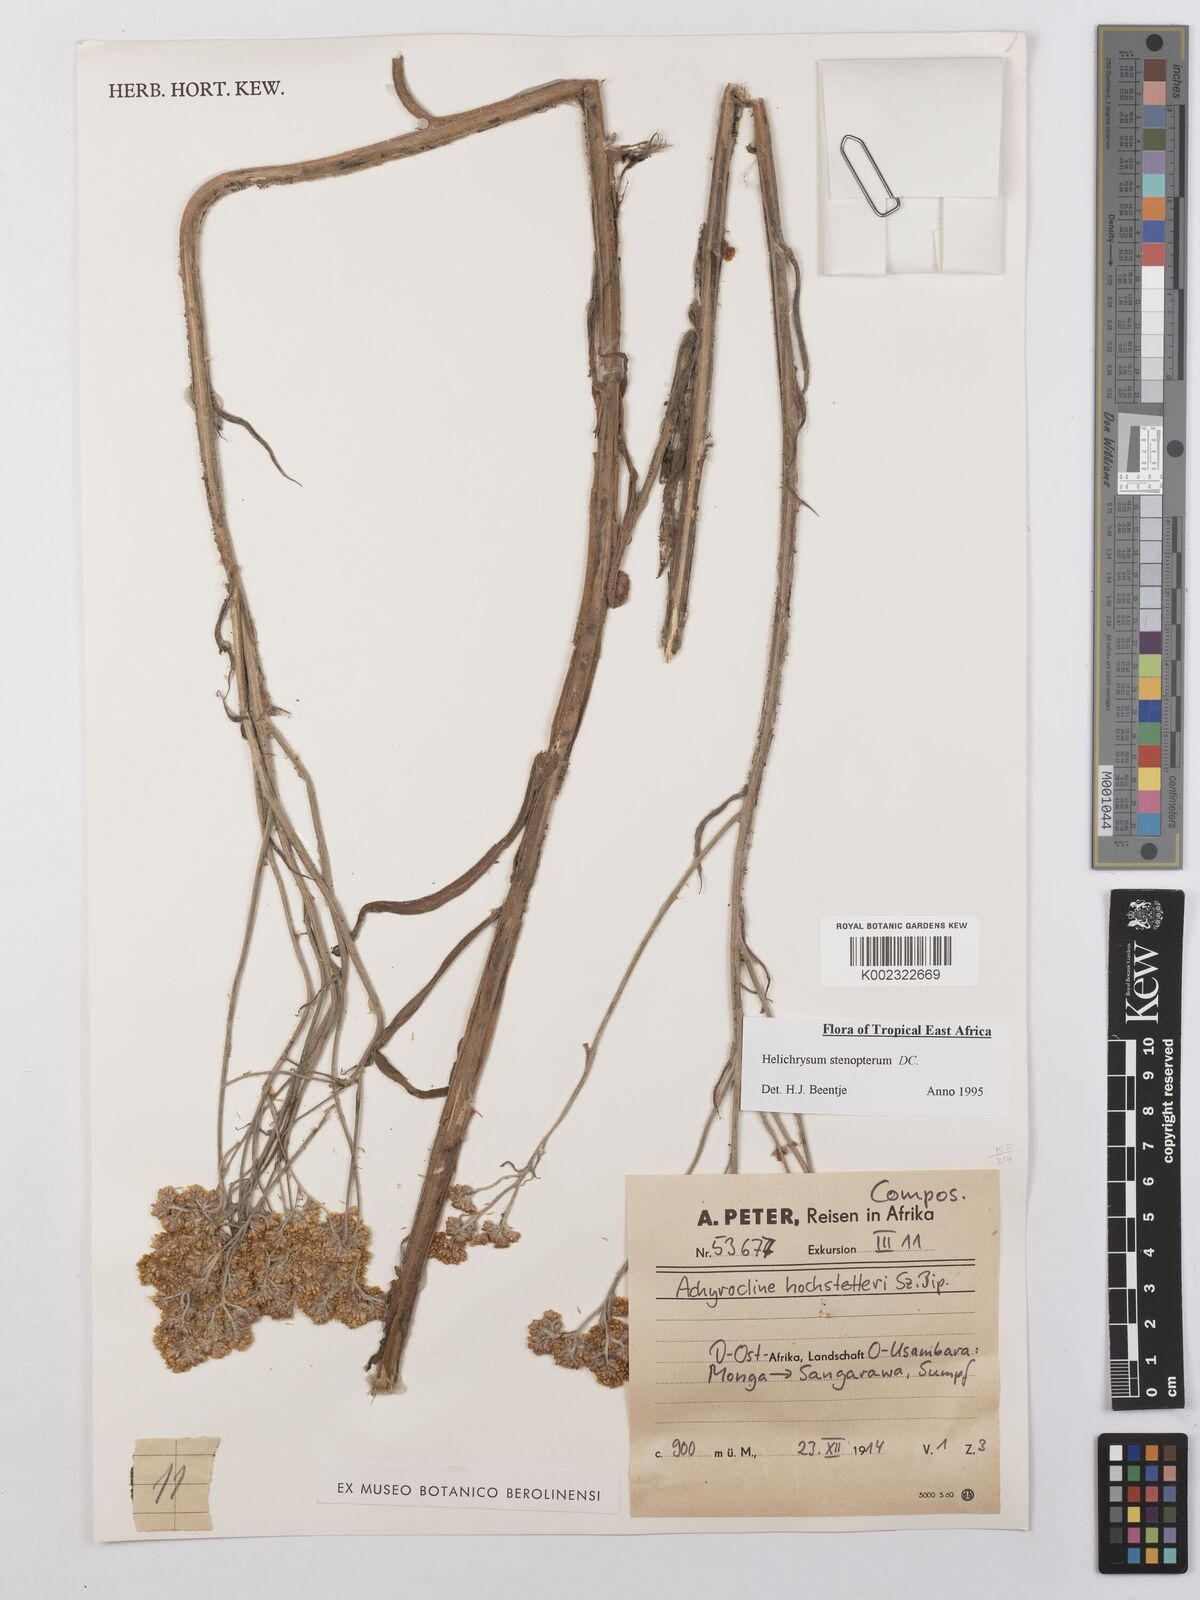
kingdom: Plantae
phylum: Tracheophyta
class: Magnoliopsida
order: Asterales
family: Asteraceae
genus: Helichrysum
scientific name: Helichrysum stenopterum
